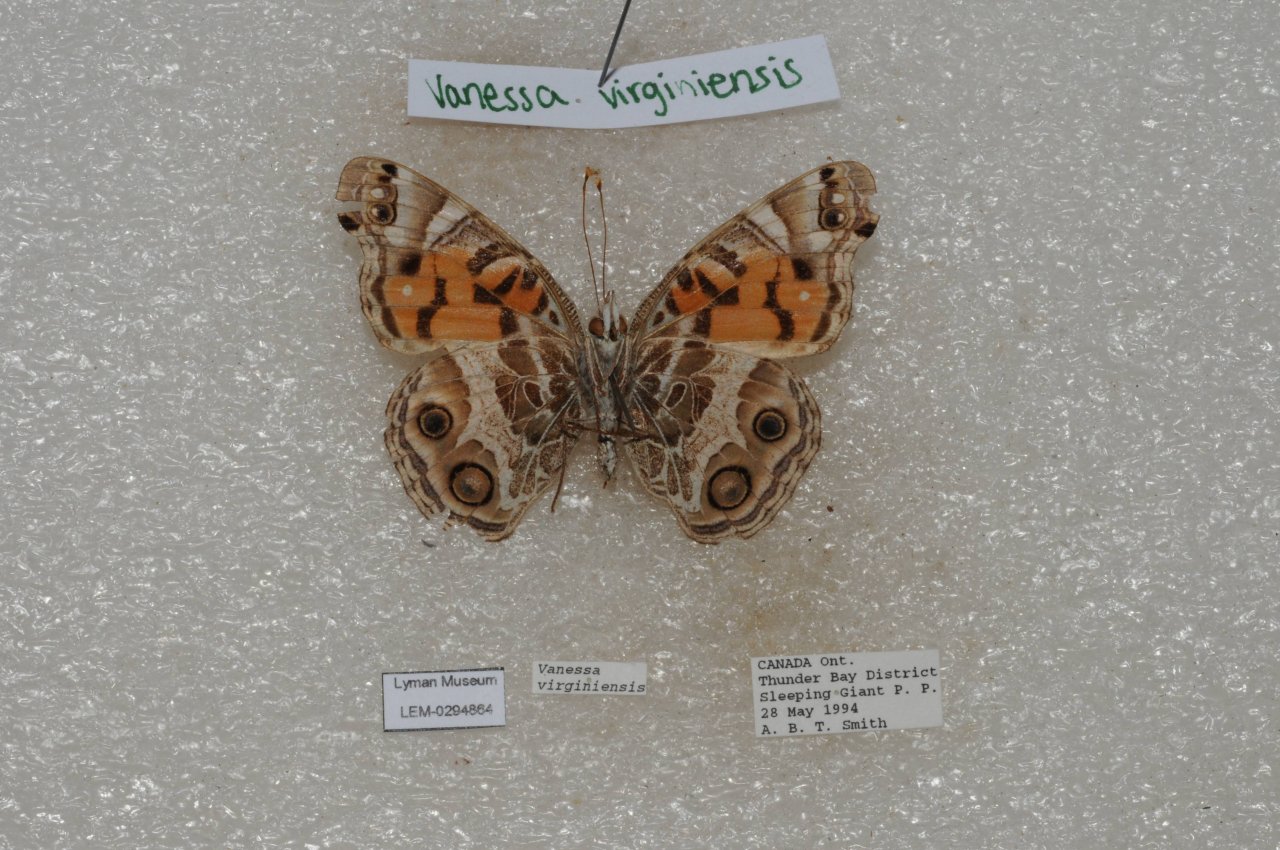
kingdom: Animalia
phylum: Arthropoda
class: Insecta
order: Lepidoptera
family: Nymphalidae
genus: Vanessa
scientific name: Vanessa virginiensis
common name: American Lady
